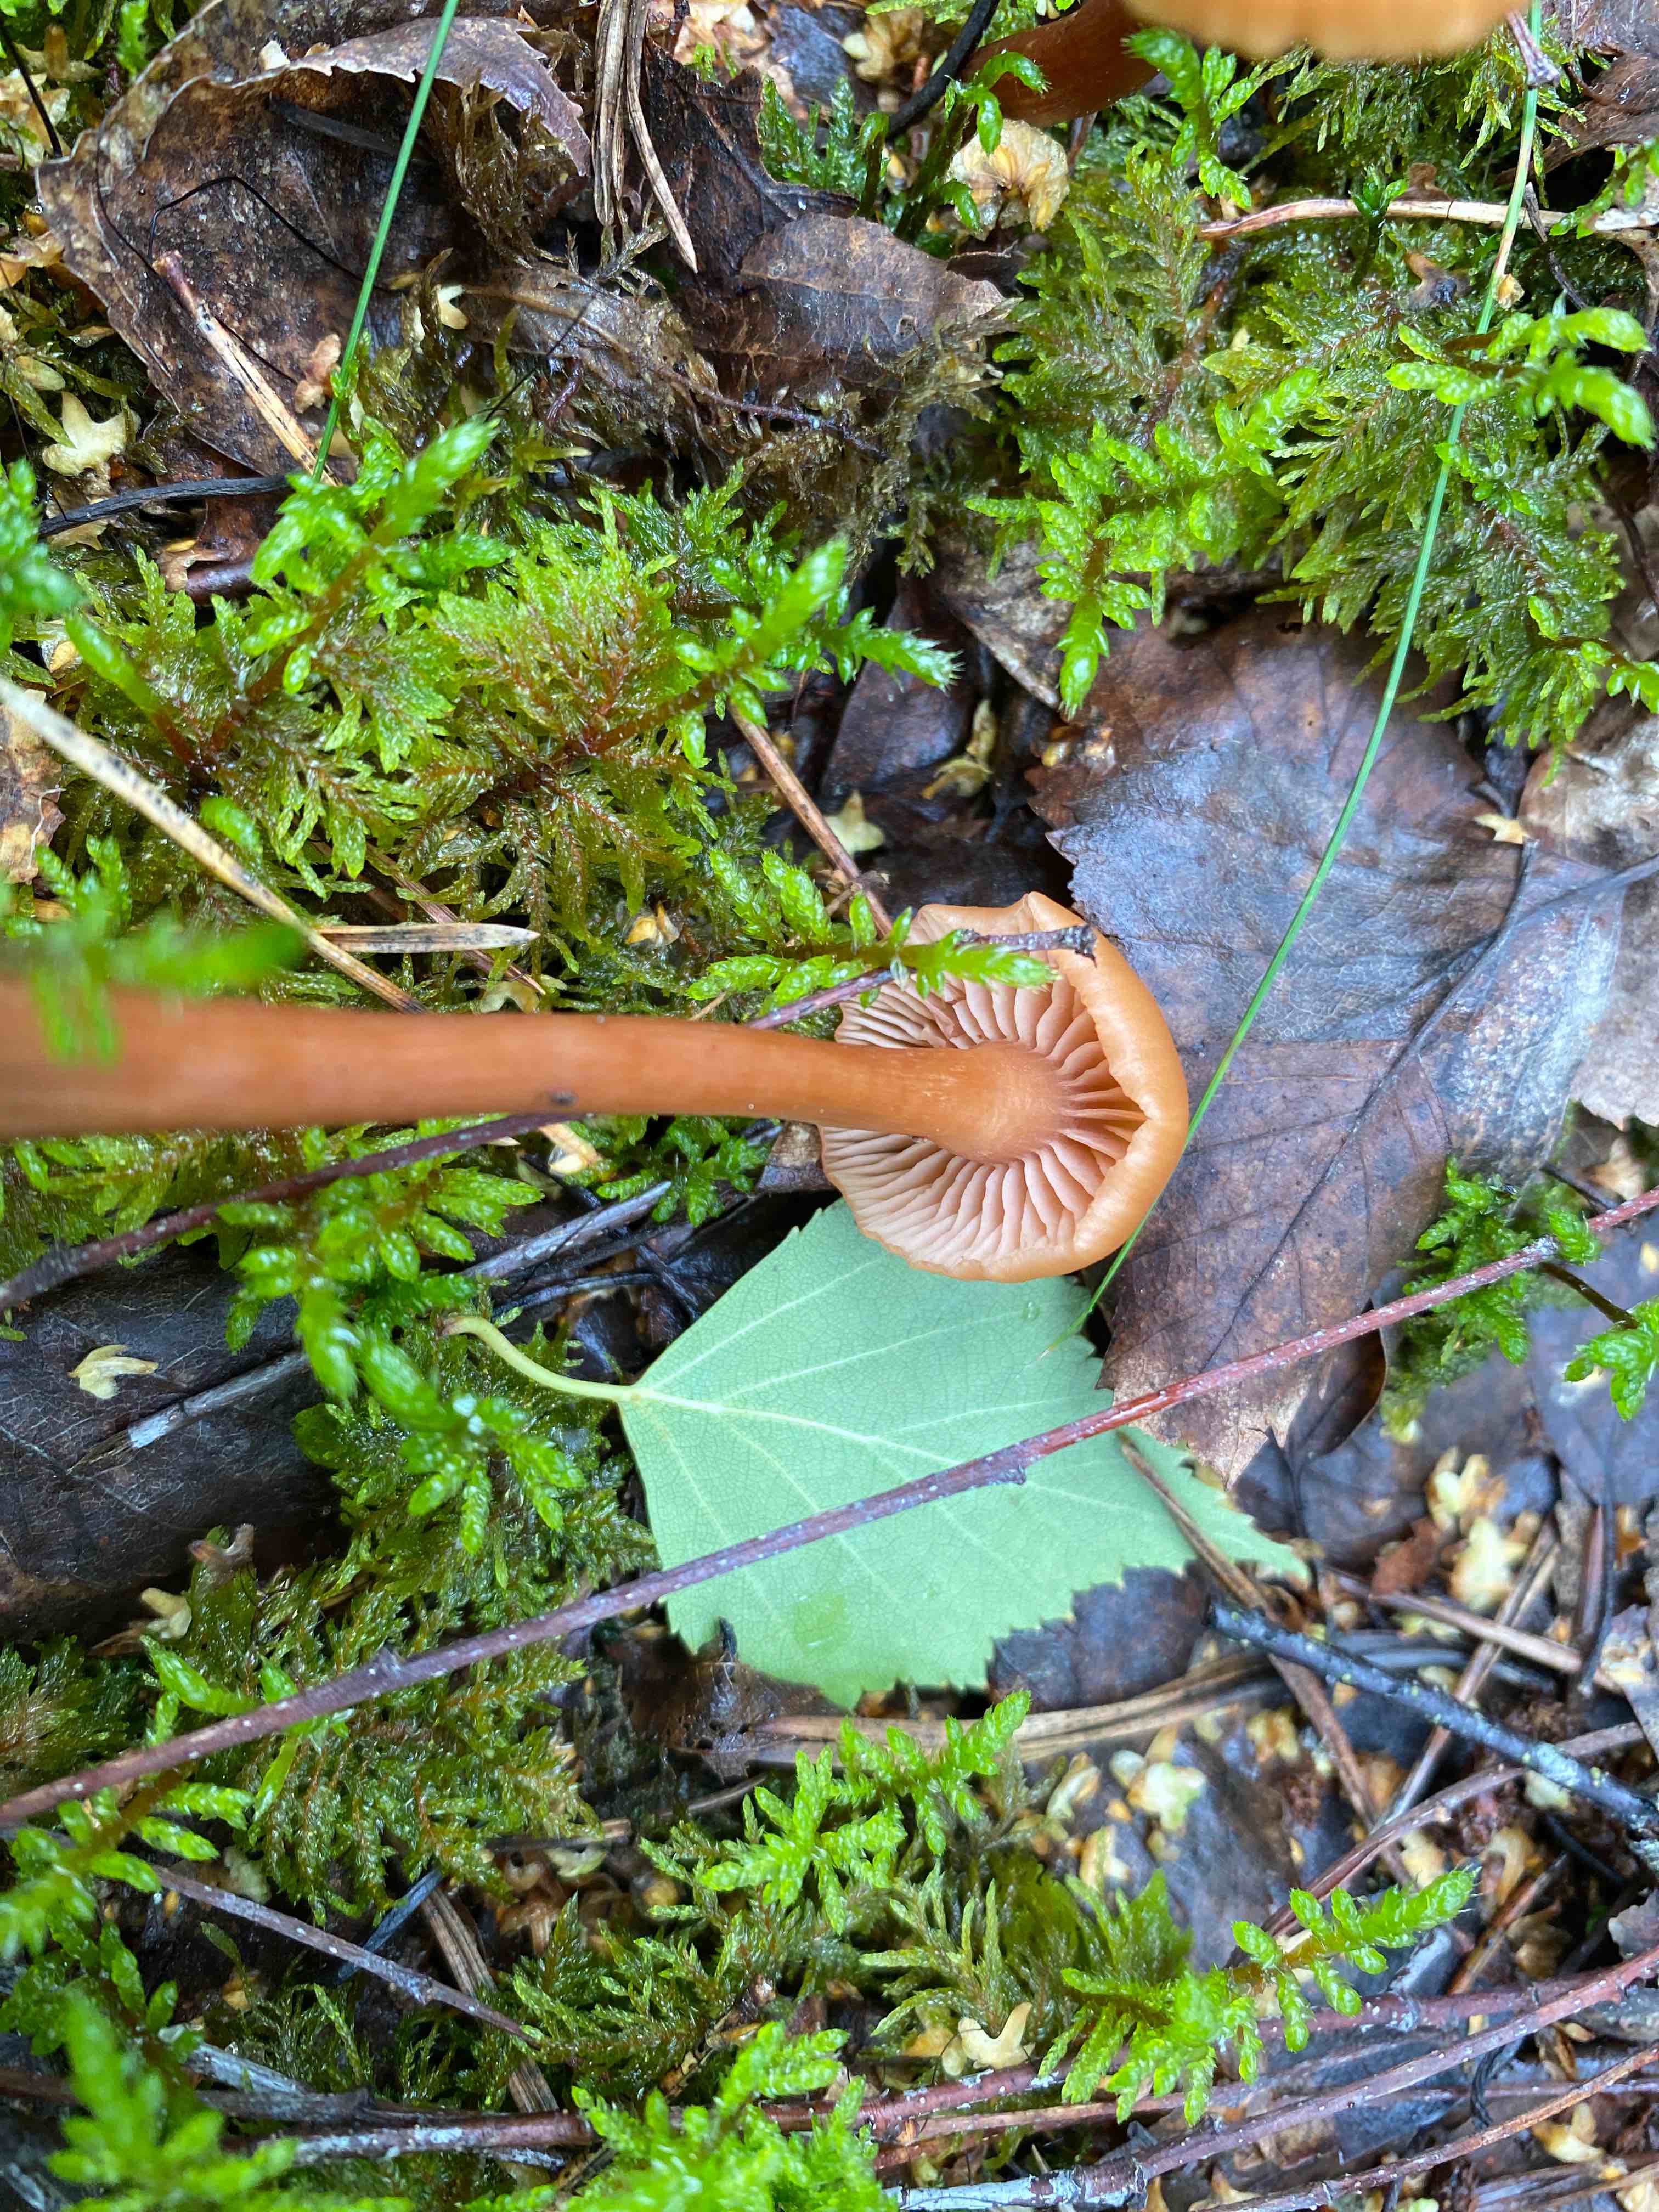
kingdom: Fungi
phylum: Basidiomycota
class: Agaricomycetes
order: Agaricales
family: Hydnangiaceae
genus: Laccaria
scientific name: Laccaria laccata
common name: rød ametysthat
